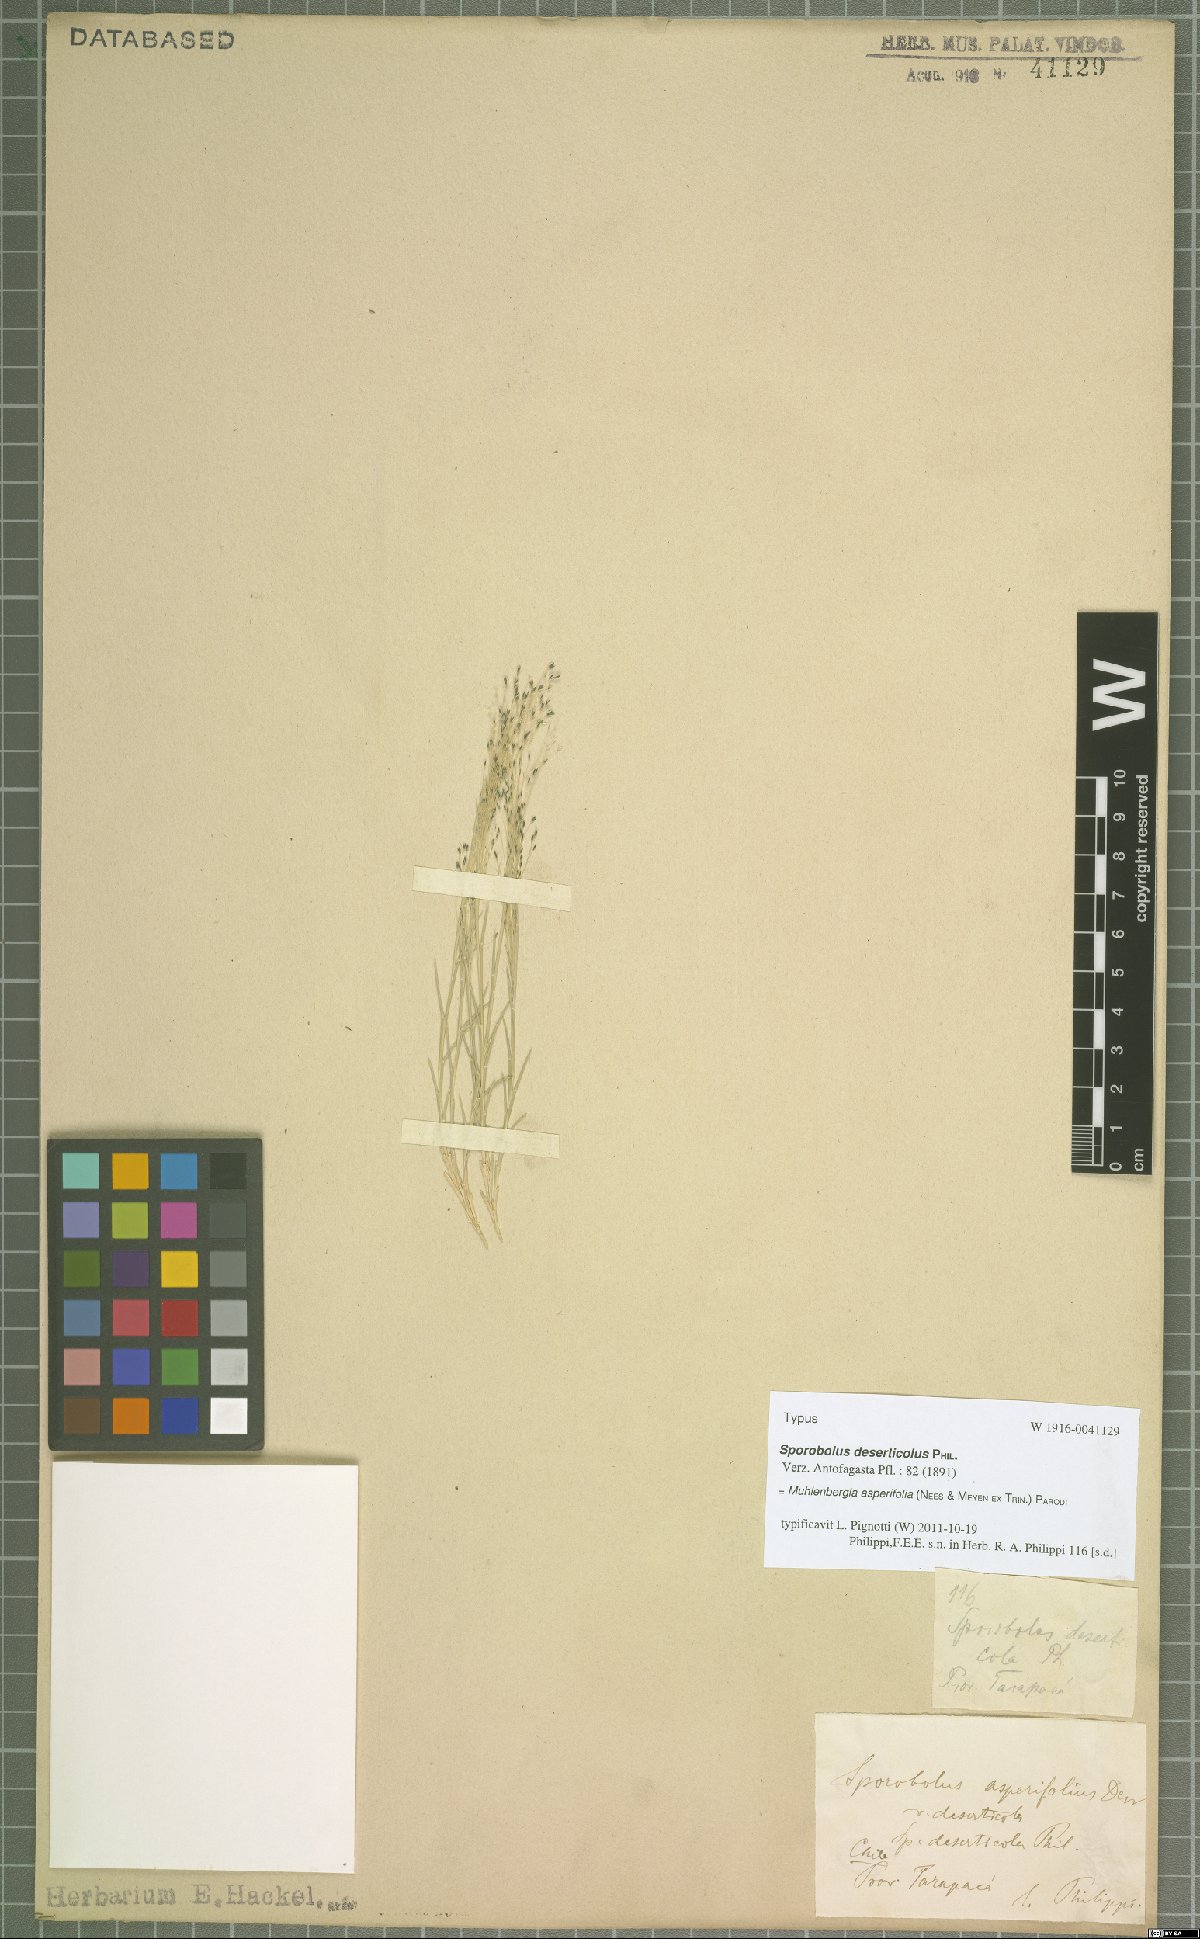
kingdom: Plantae
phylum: Tracheophyta
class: Liliopsida
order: Poales
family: Poaceae
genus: Muhlenbergia
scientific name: Muhlenbergia asperifolia
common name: Alkali muhly
